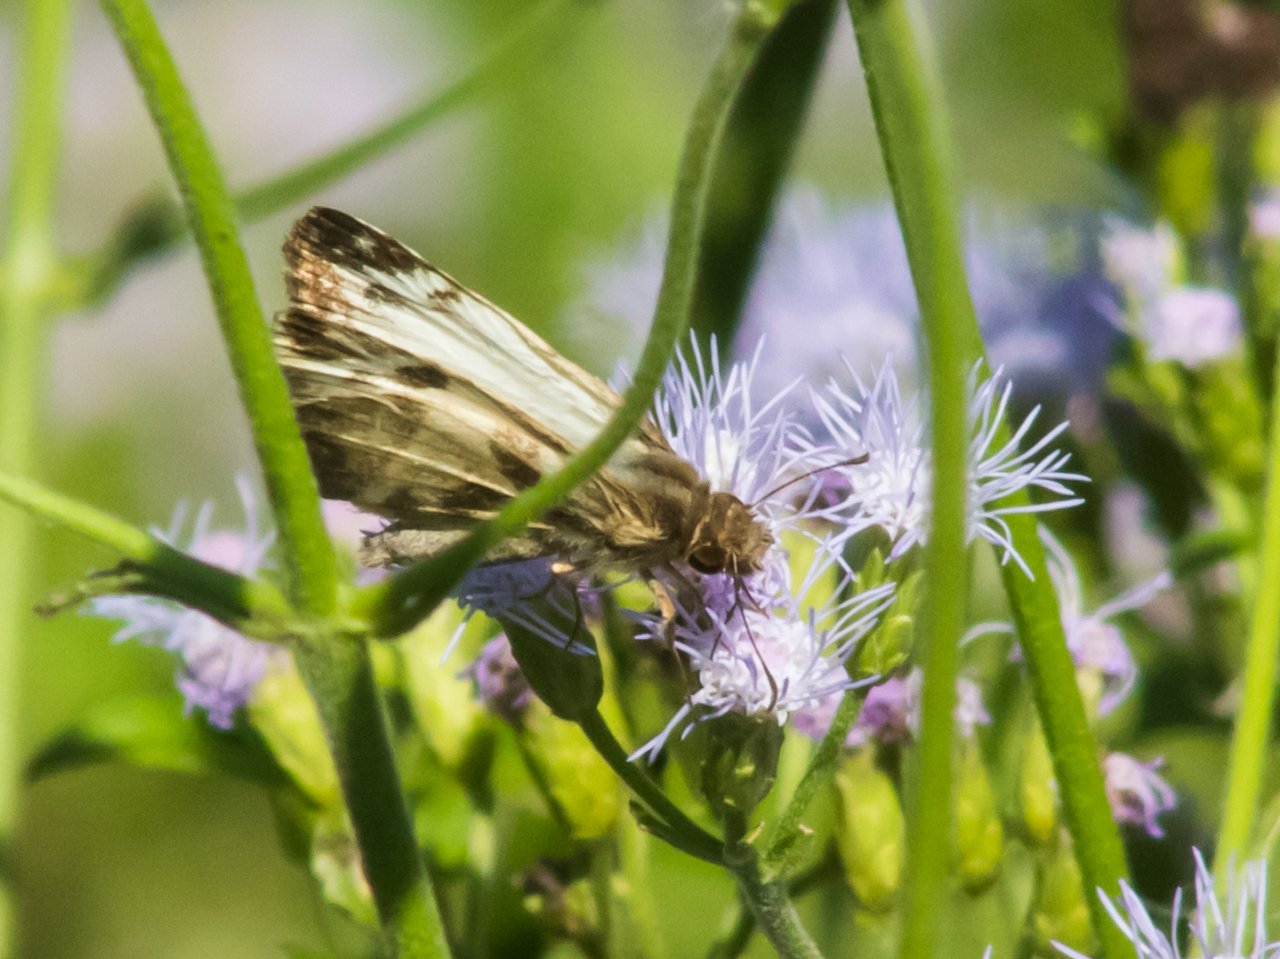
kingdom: Animalia
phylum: Arthropoda
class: Insecta
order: Lepidoptera
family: Hesperiidae
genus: Heliopetes
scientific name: Heliopetes laviana
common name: Laviana White-Skipper
